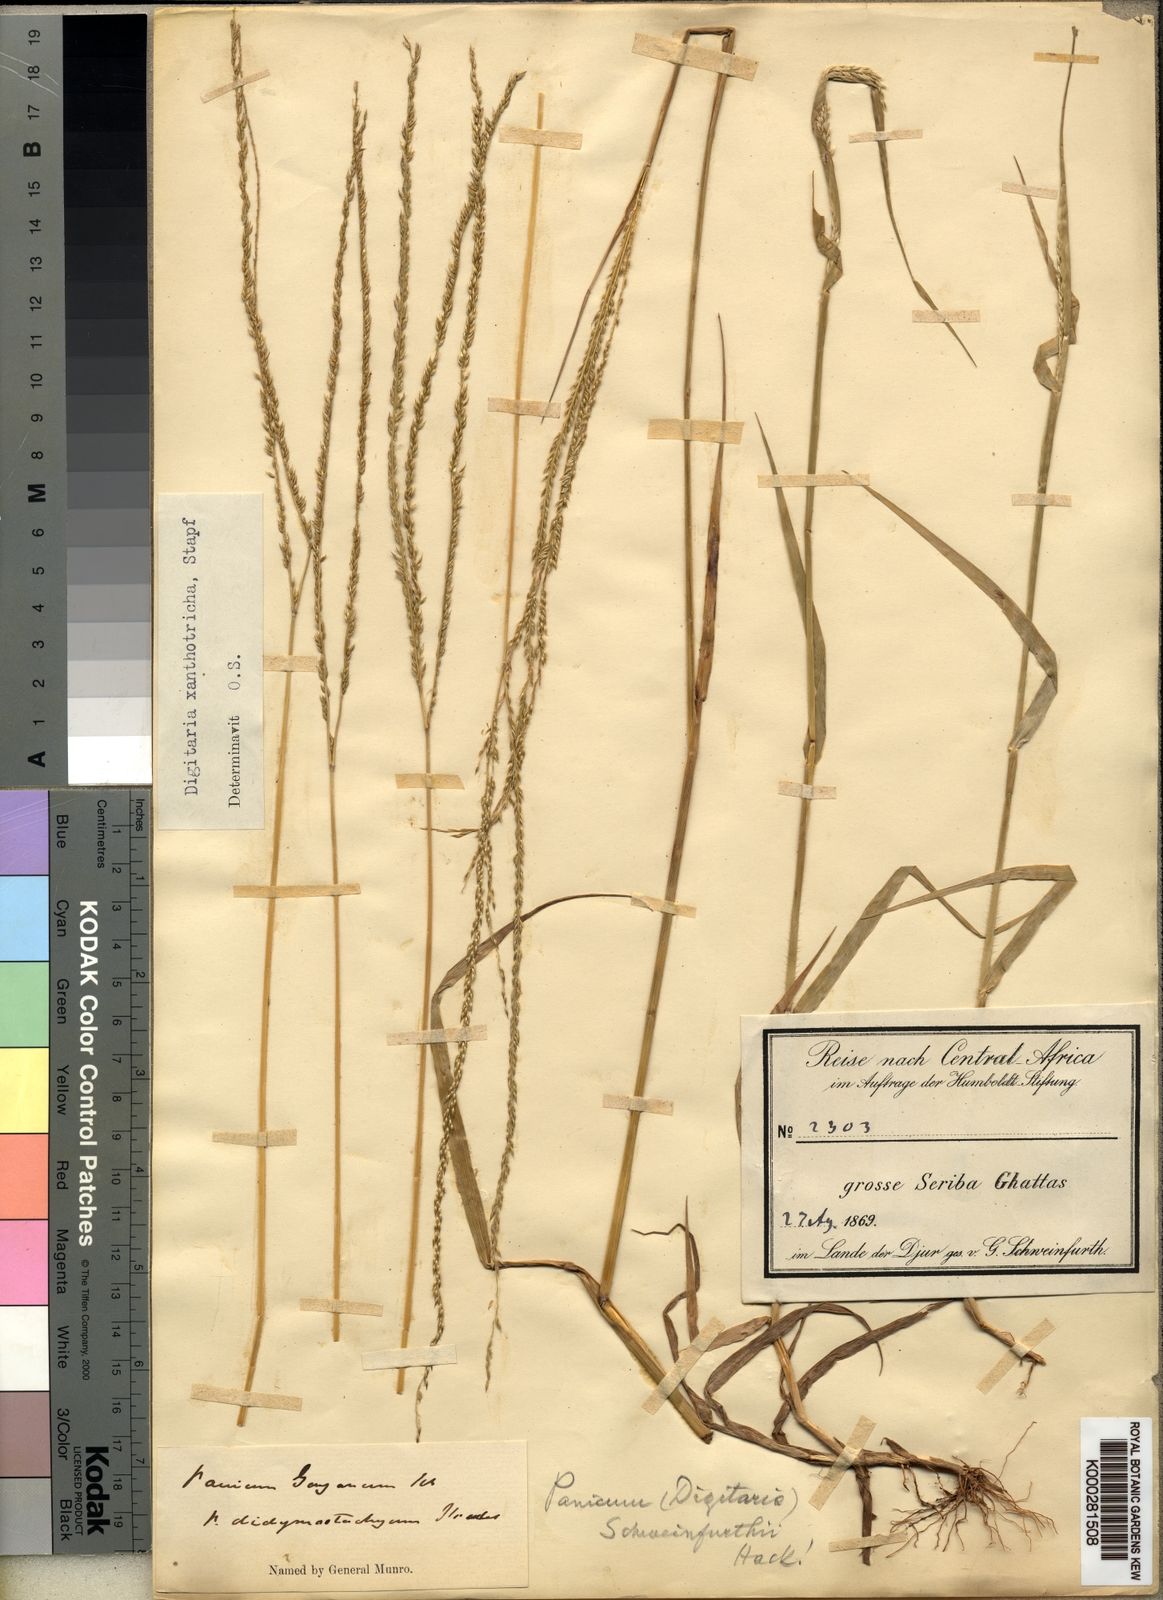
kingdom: Plantae
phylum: Tracheophyta
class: Liliopsida
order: Poales
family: Poaceae
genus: Digitaria
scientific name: Digitaria xanthotricha
